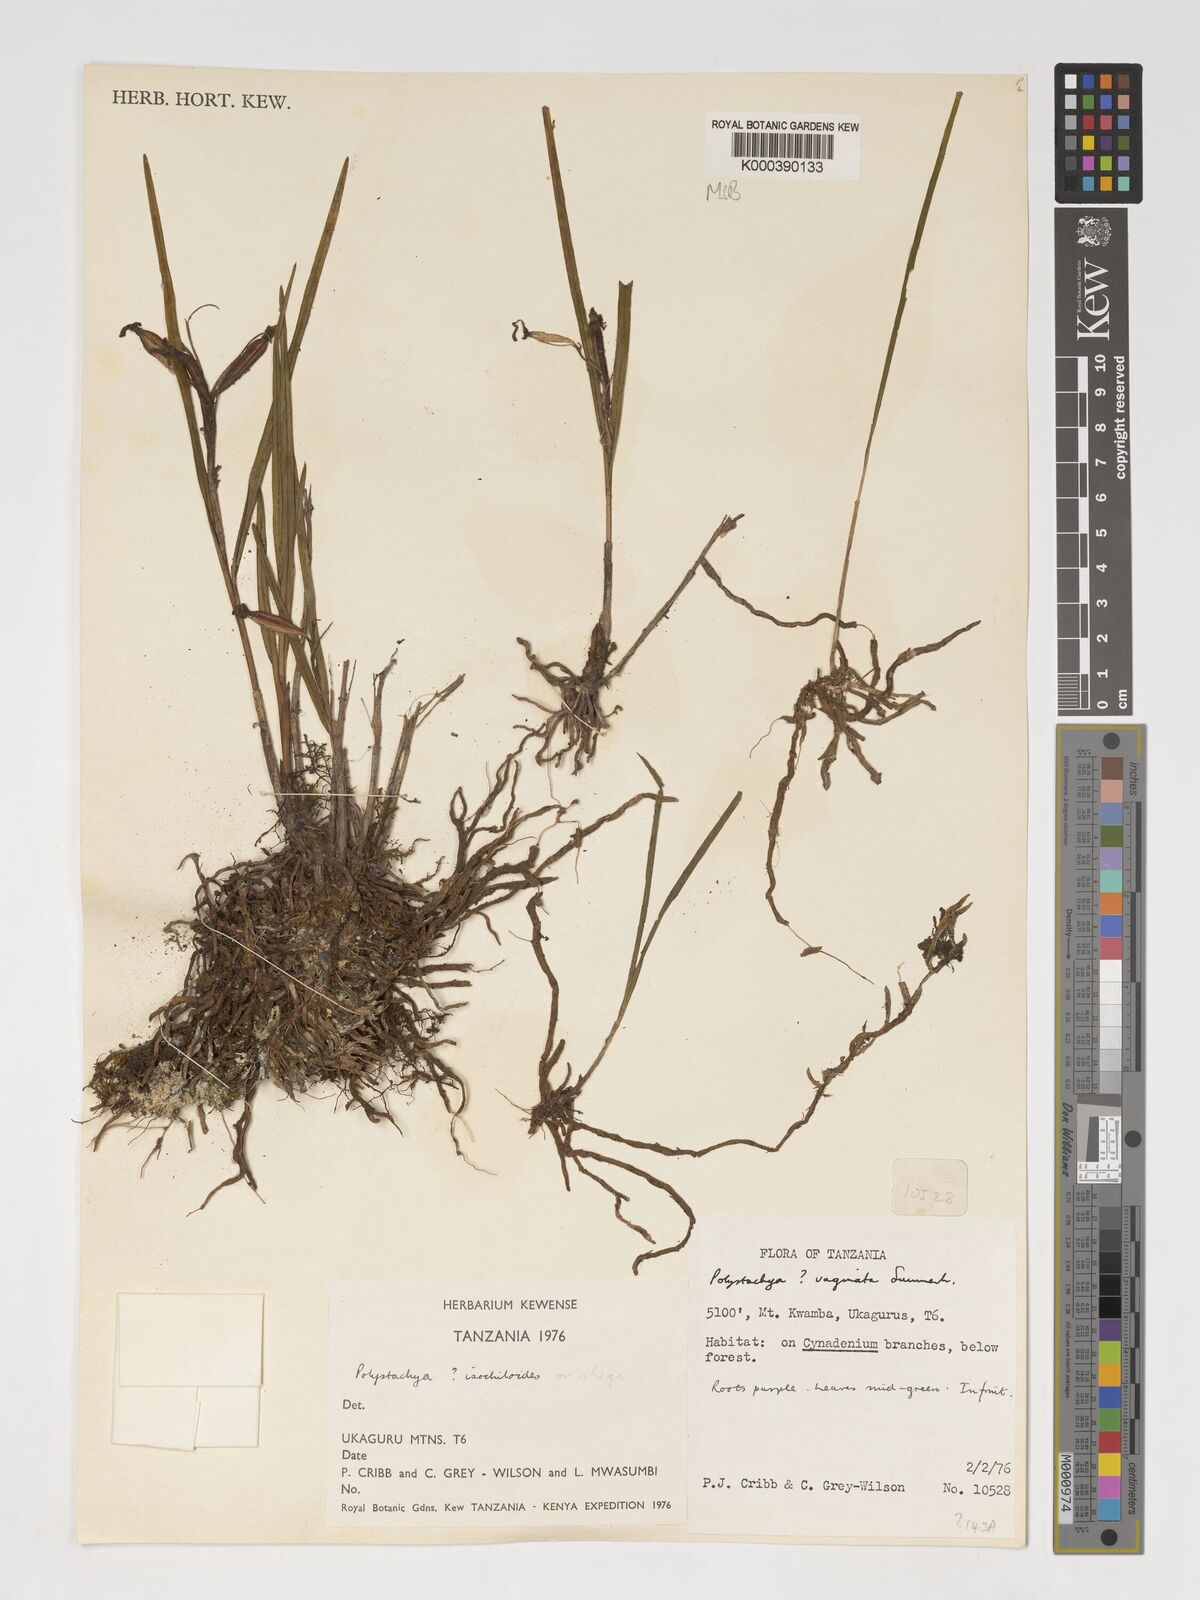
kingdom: Plantae
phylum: Tracheophyta
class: Liliopsida
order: Asparagales
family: Orchidaceae
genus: Polystachya
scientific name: Polystachya isochiloides
